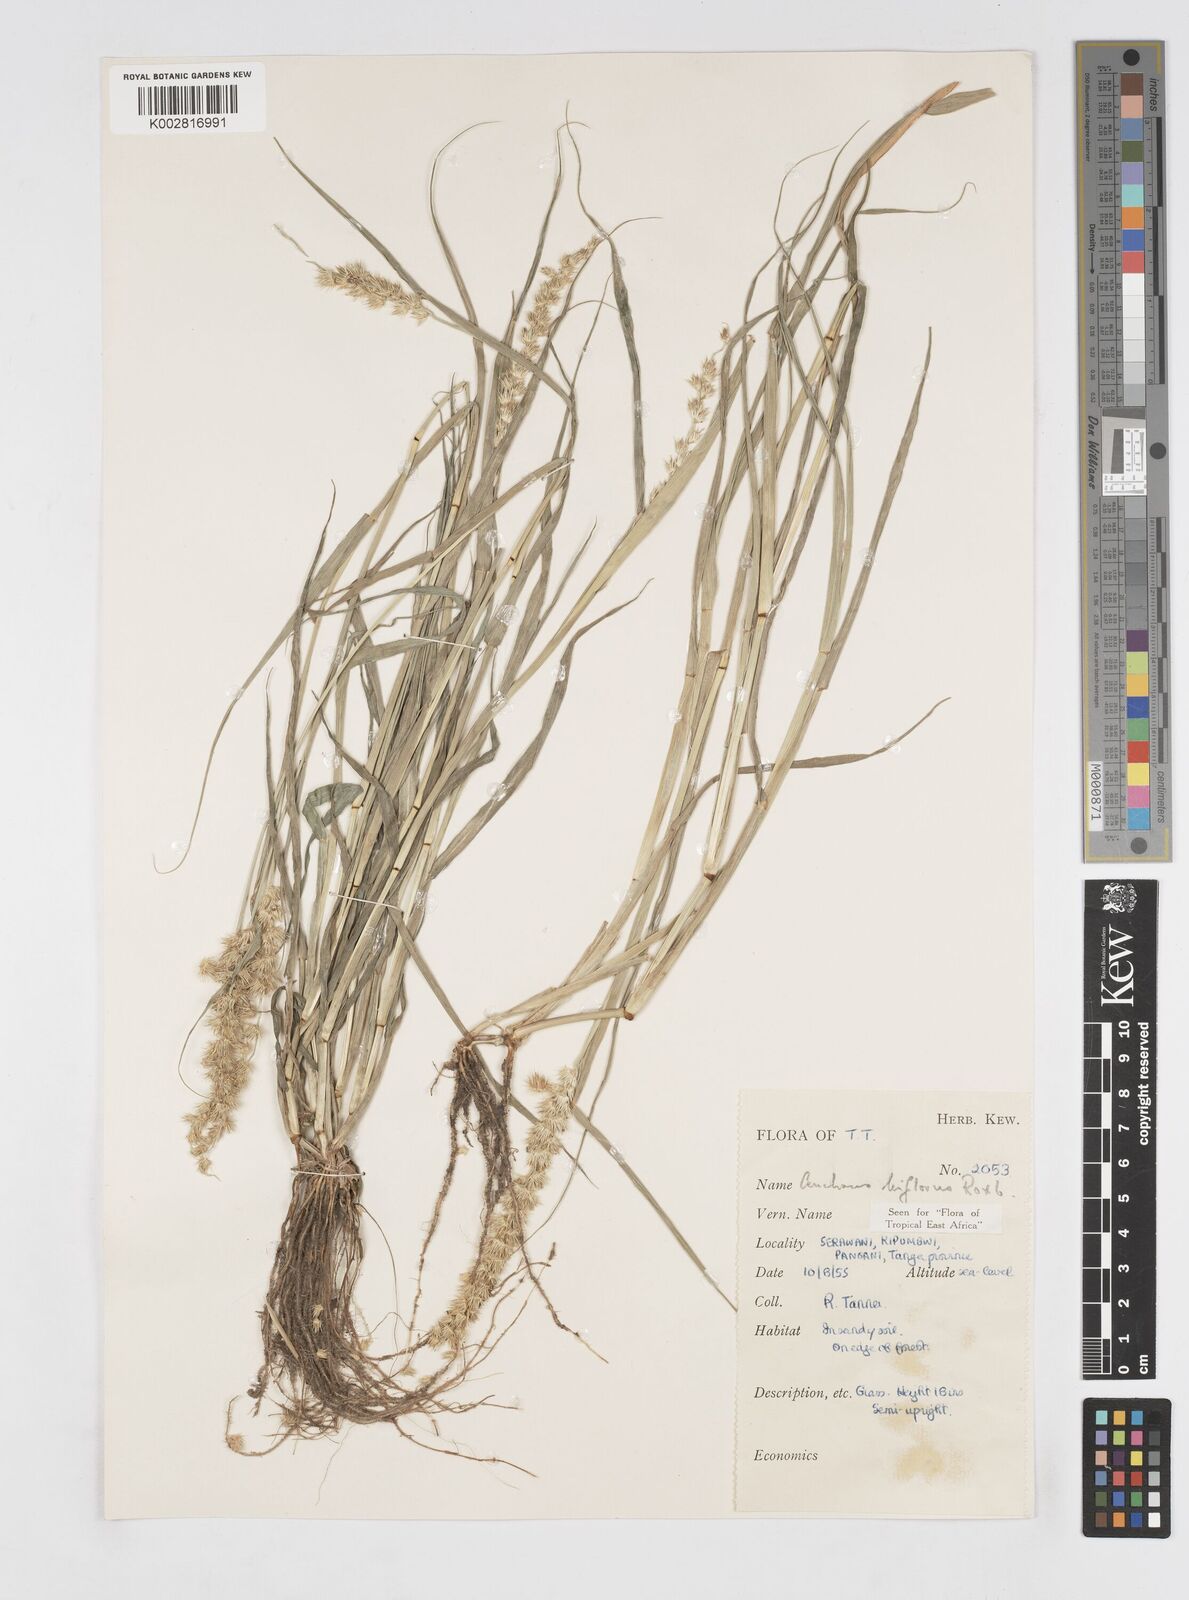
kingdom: Plantae
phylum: Tracheophyta
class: Liliopsida
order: Poales
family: Poaceae
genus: Cenchrus
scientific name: Cenchrus biflorus
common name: Indian sandbur
